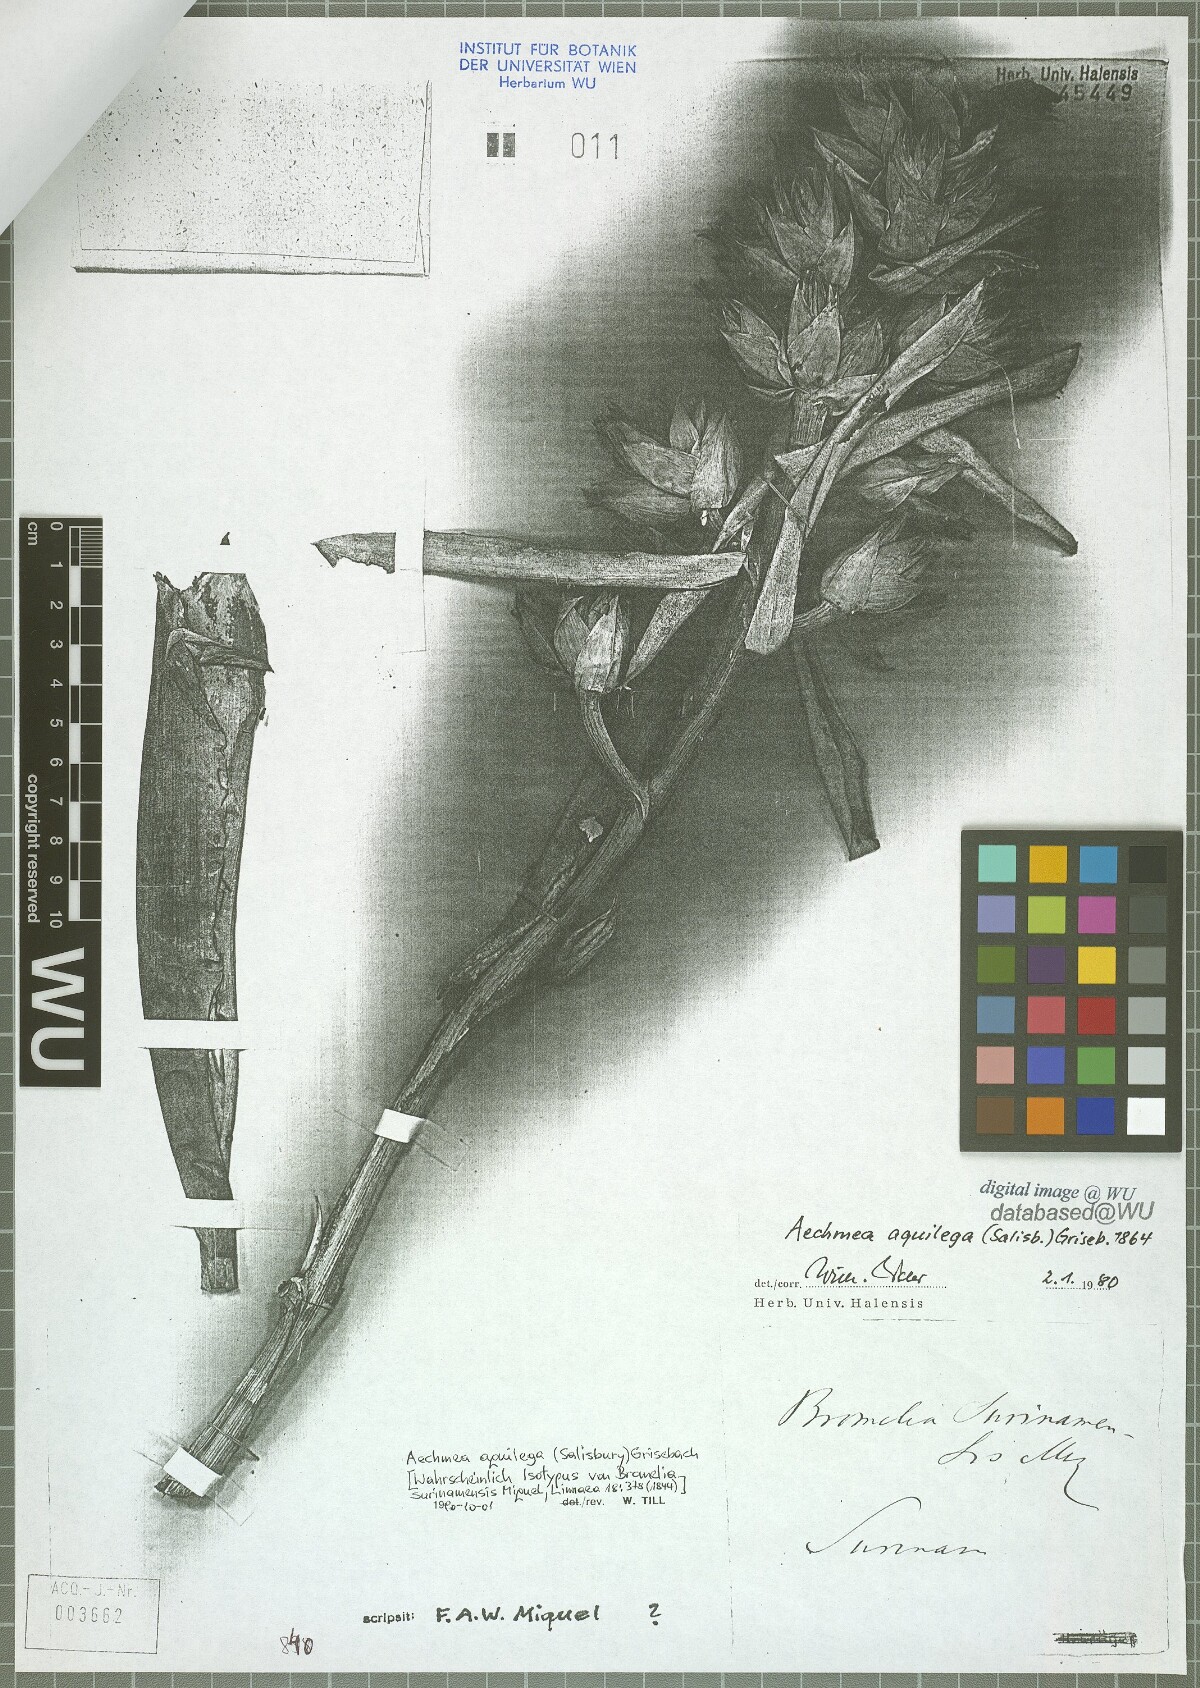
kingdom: Plantae
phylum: Tracheophyta
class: Liliopsida
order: Poales
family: Bromeliaceae
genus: Aechmea
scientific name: Aechmea aquilega
